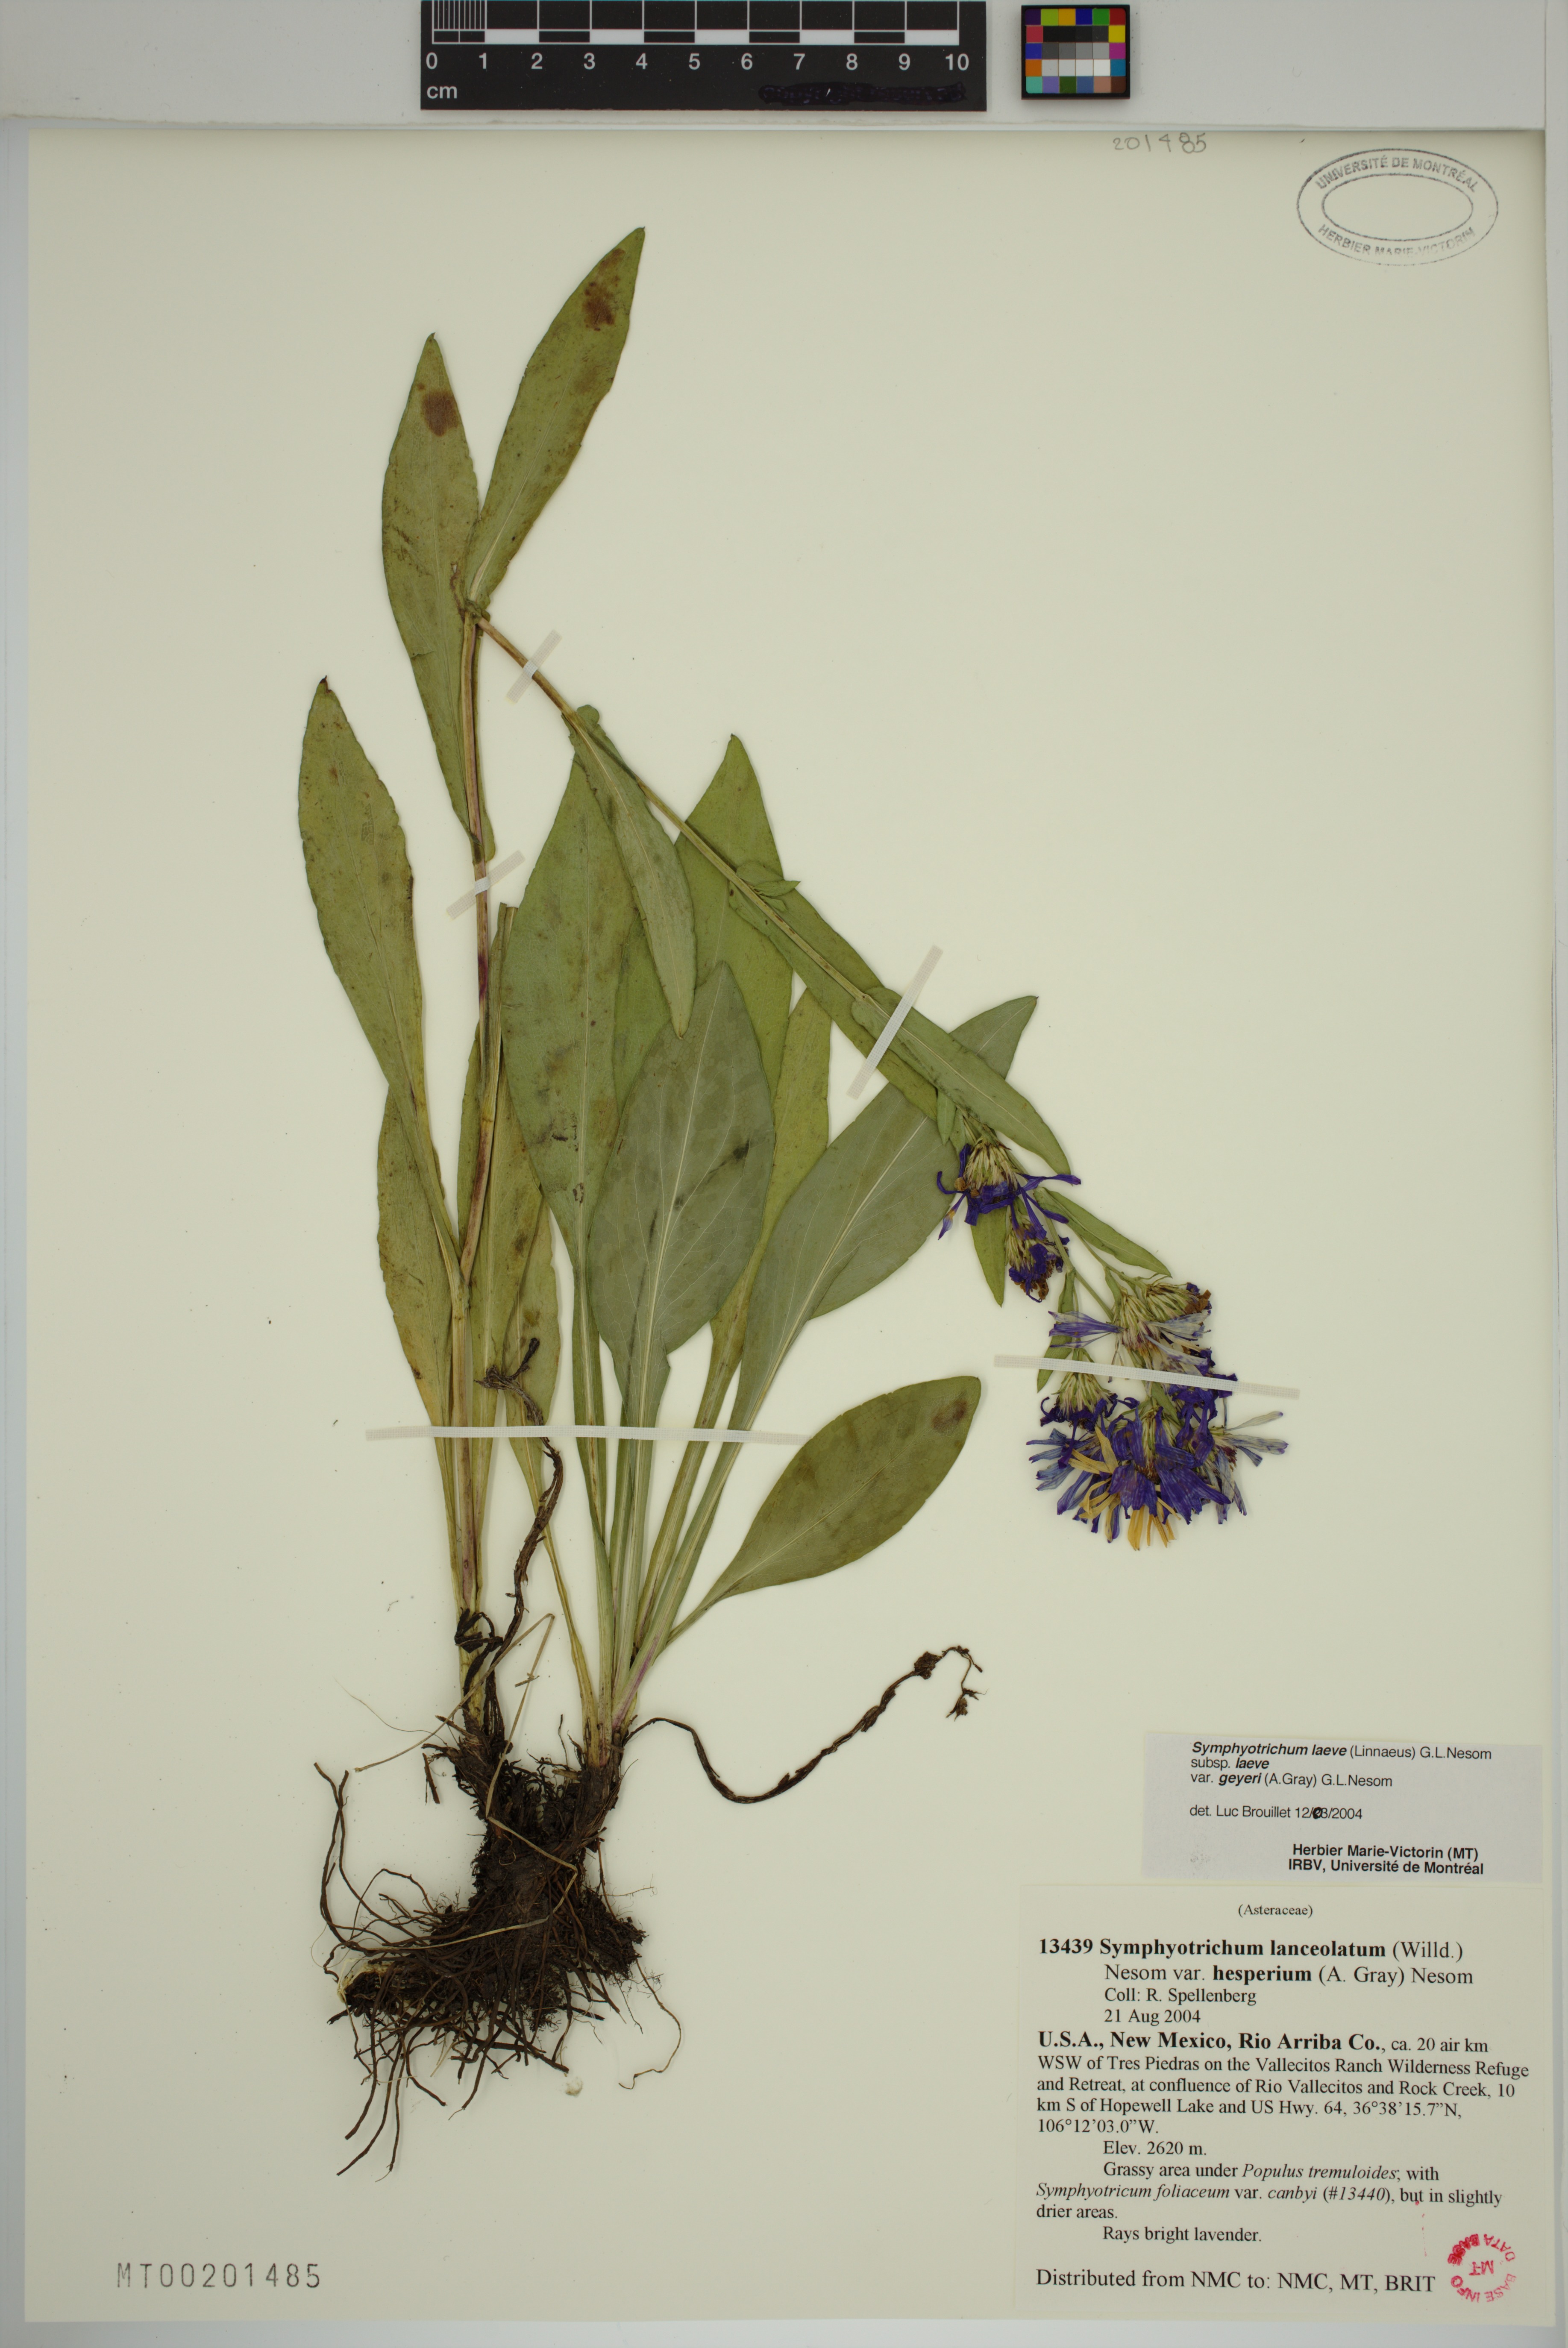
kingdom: Plantae
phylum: Tracheophyta
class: Magnoliopsida
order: Asterales
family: Asteraceae
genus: Symphyotrichum
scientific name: Symphyotrichum laeve
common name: Glaucous aster
